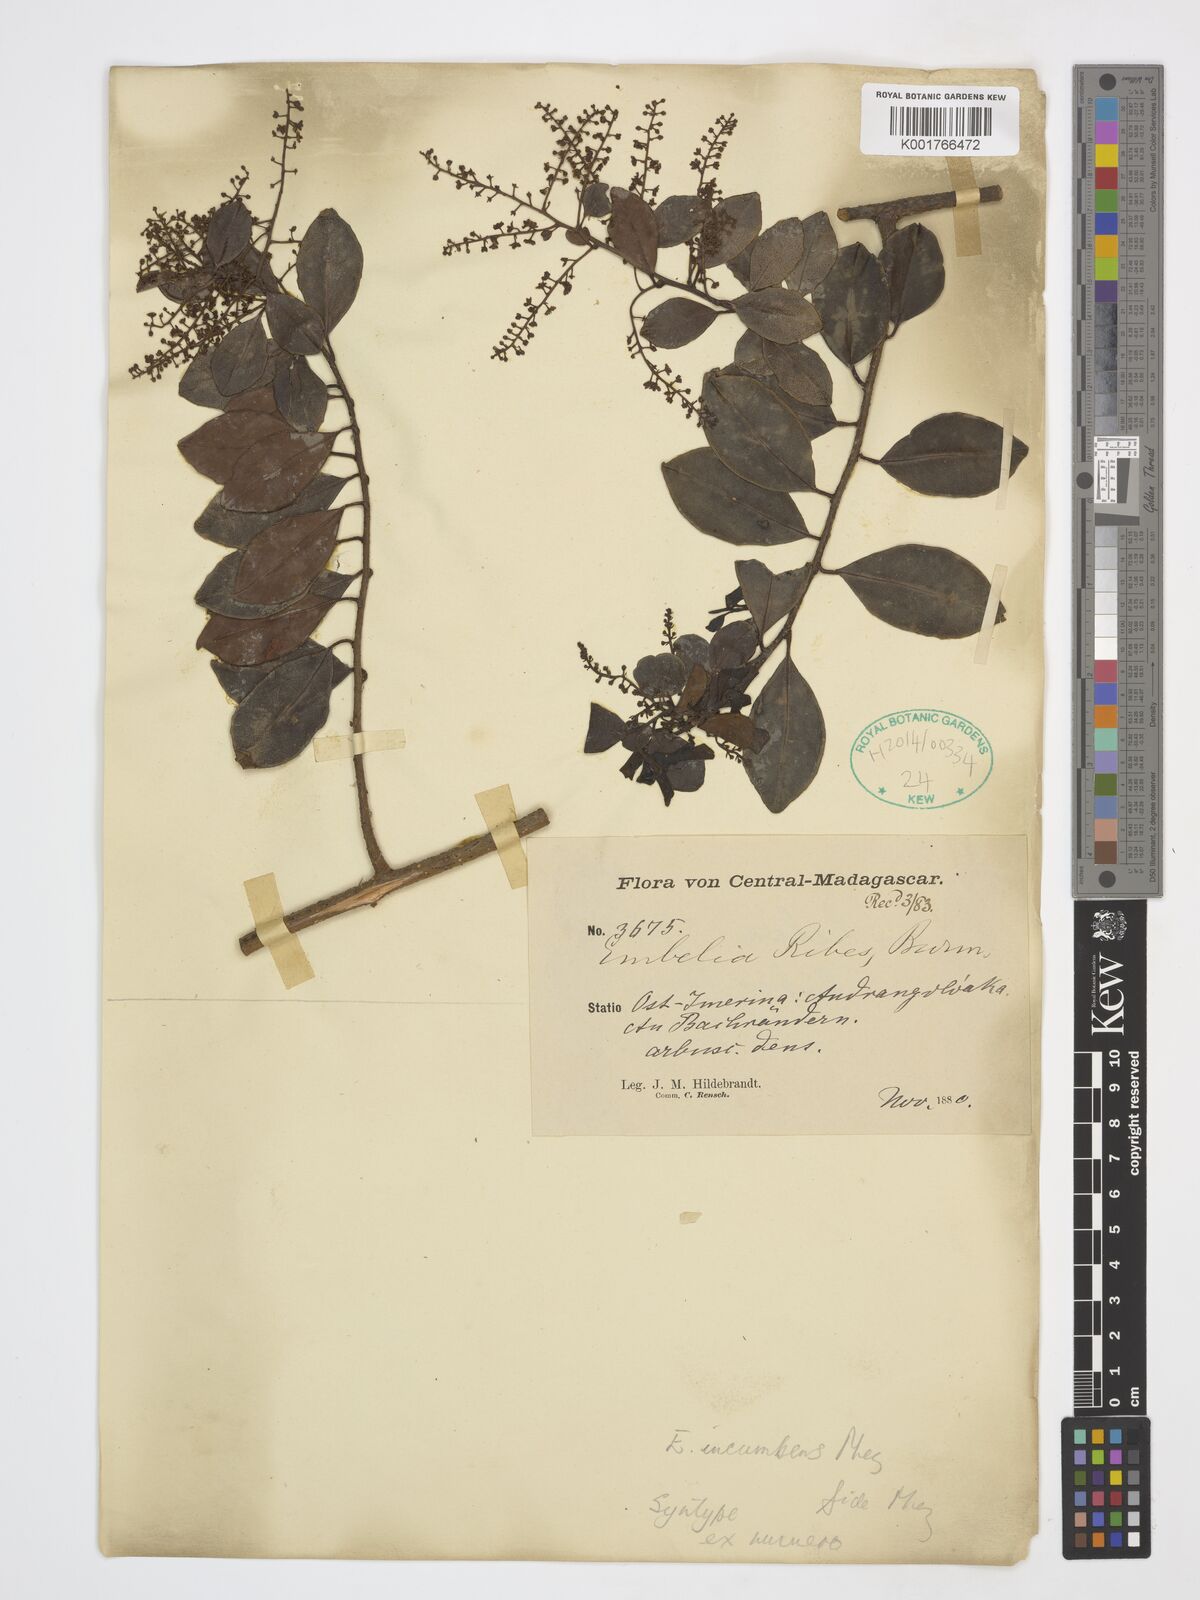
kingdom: Plantae
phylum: Tracheophyta
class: Magnoliopsida
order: Ericales
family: Primulaceae
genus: Embelia
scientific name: Embelia incumbens
